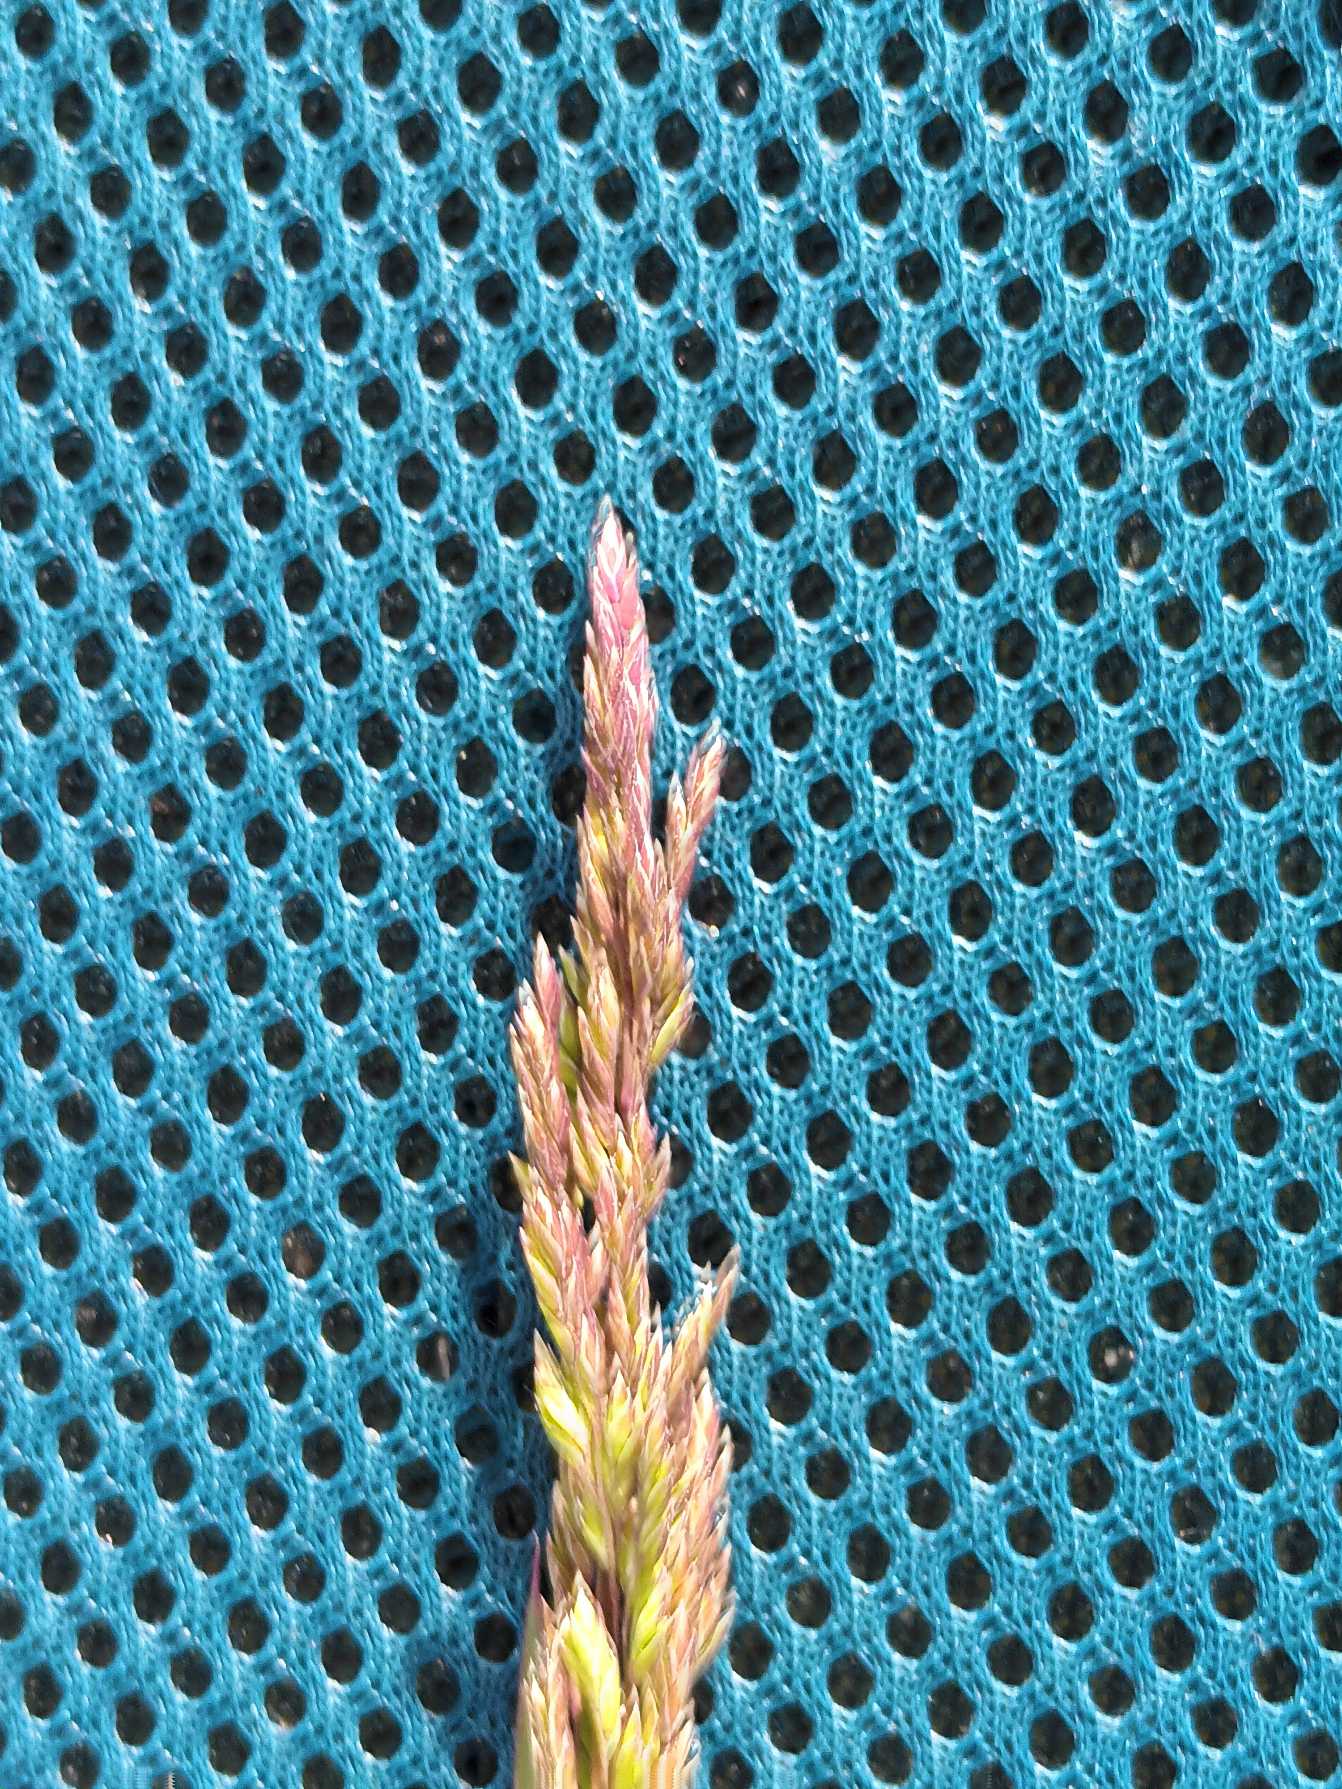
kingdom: Plantae
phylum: Tracheophyta
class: Liliopsida
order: Poales
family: Poaceae
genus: Poa
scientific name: Poa trivialis
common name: Almindelig rapgræs
